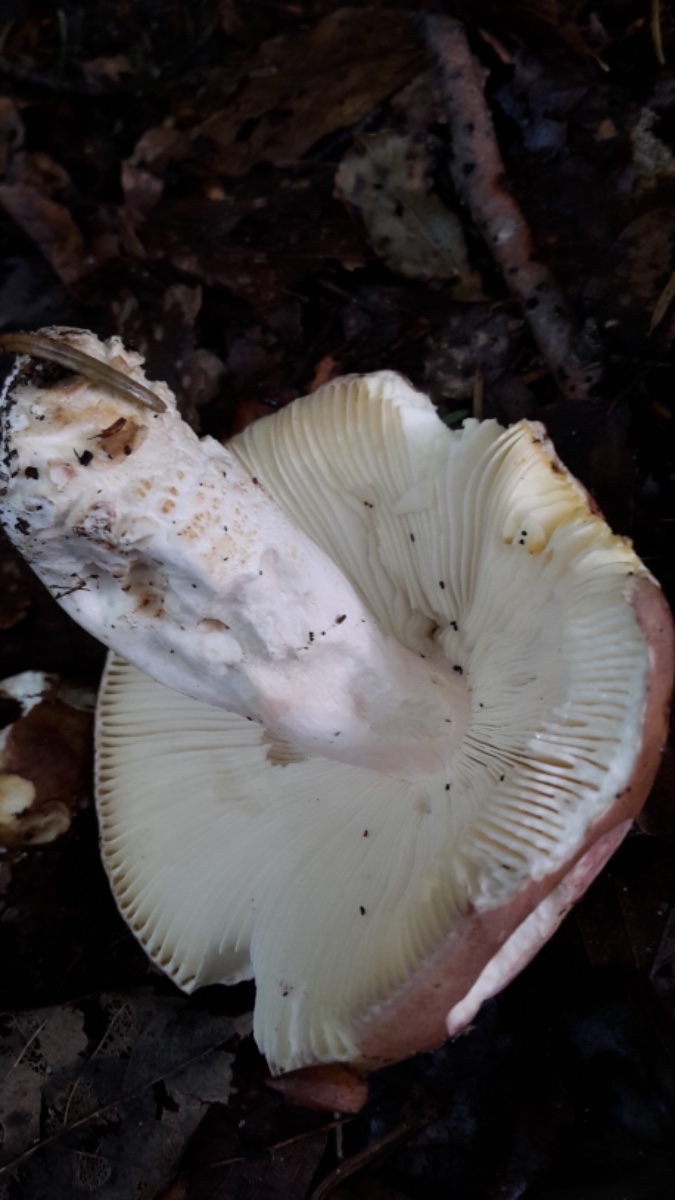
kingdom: Fungi
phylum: Basidiomycota
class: Agaricomycetes
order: Russulales
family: Russulaceae
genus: Russula
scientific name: Russula olivacea
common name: stor skørhat
